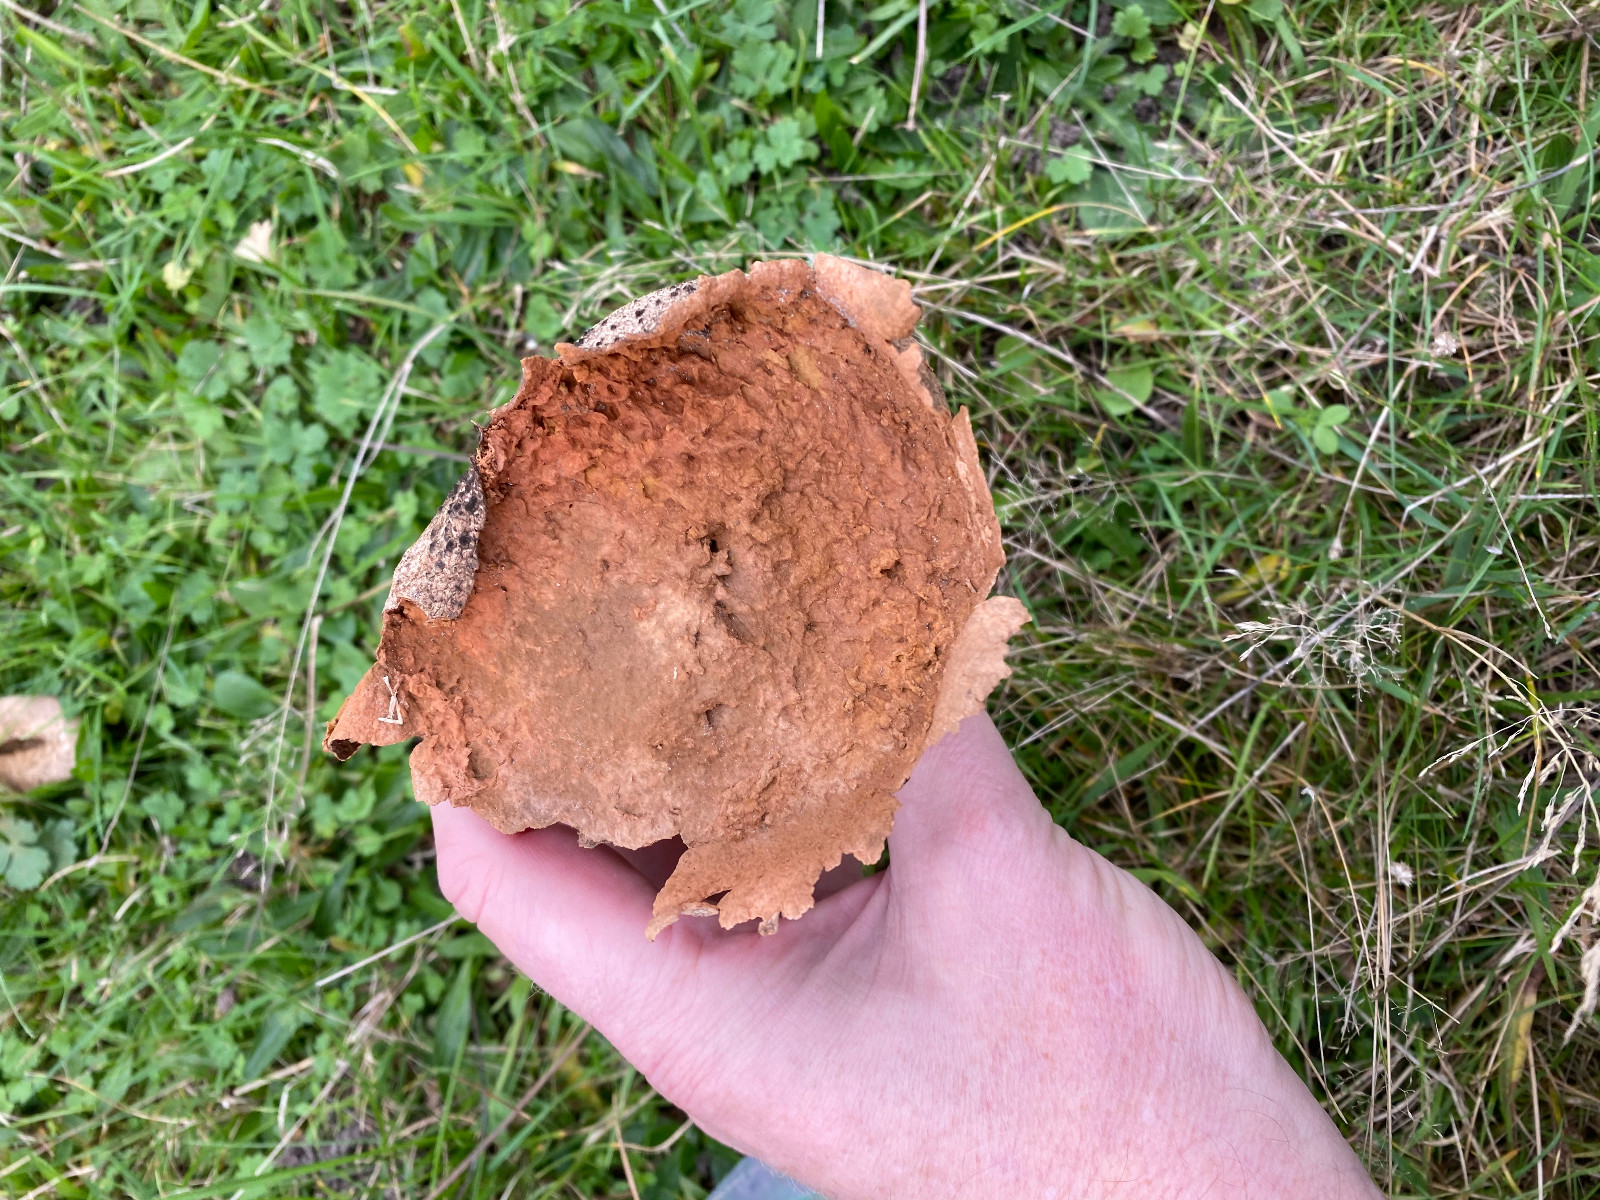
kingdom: Fungi
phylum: Basidiomycota
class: Agaricomycetes
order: Agaricales
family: Lycoperdaceae
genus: Bovistella
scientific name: Bovistella utriformis
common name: skællet støvbold
